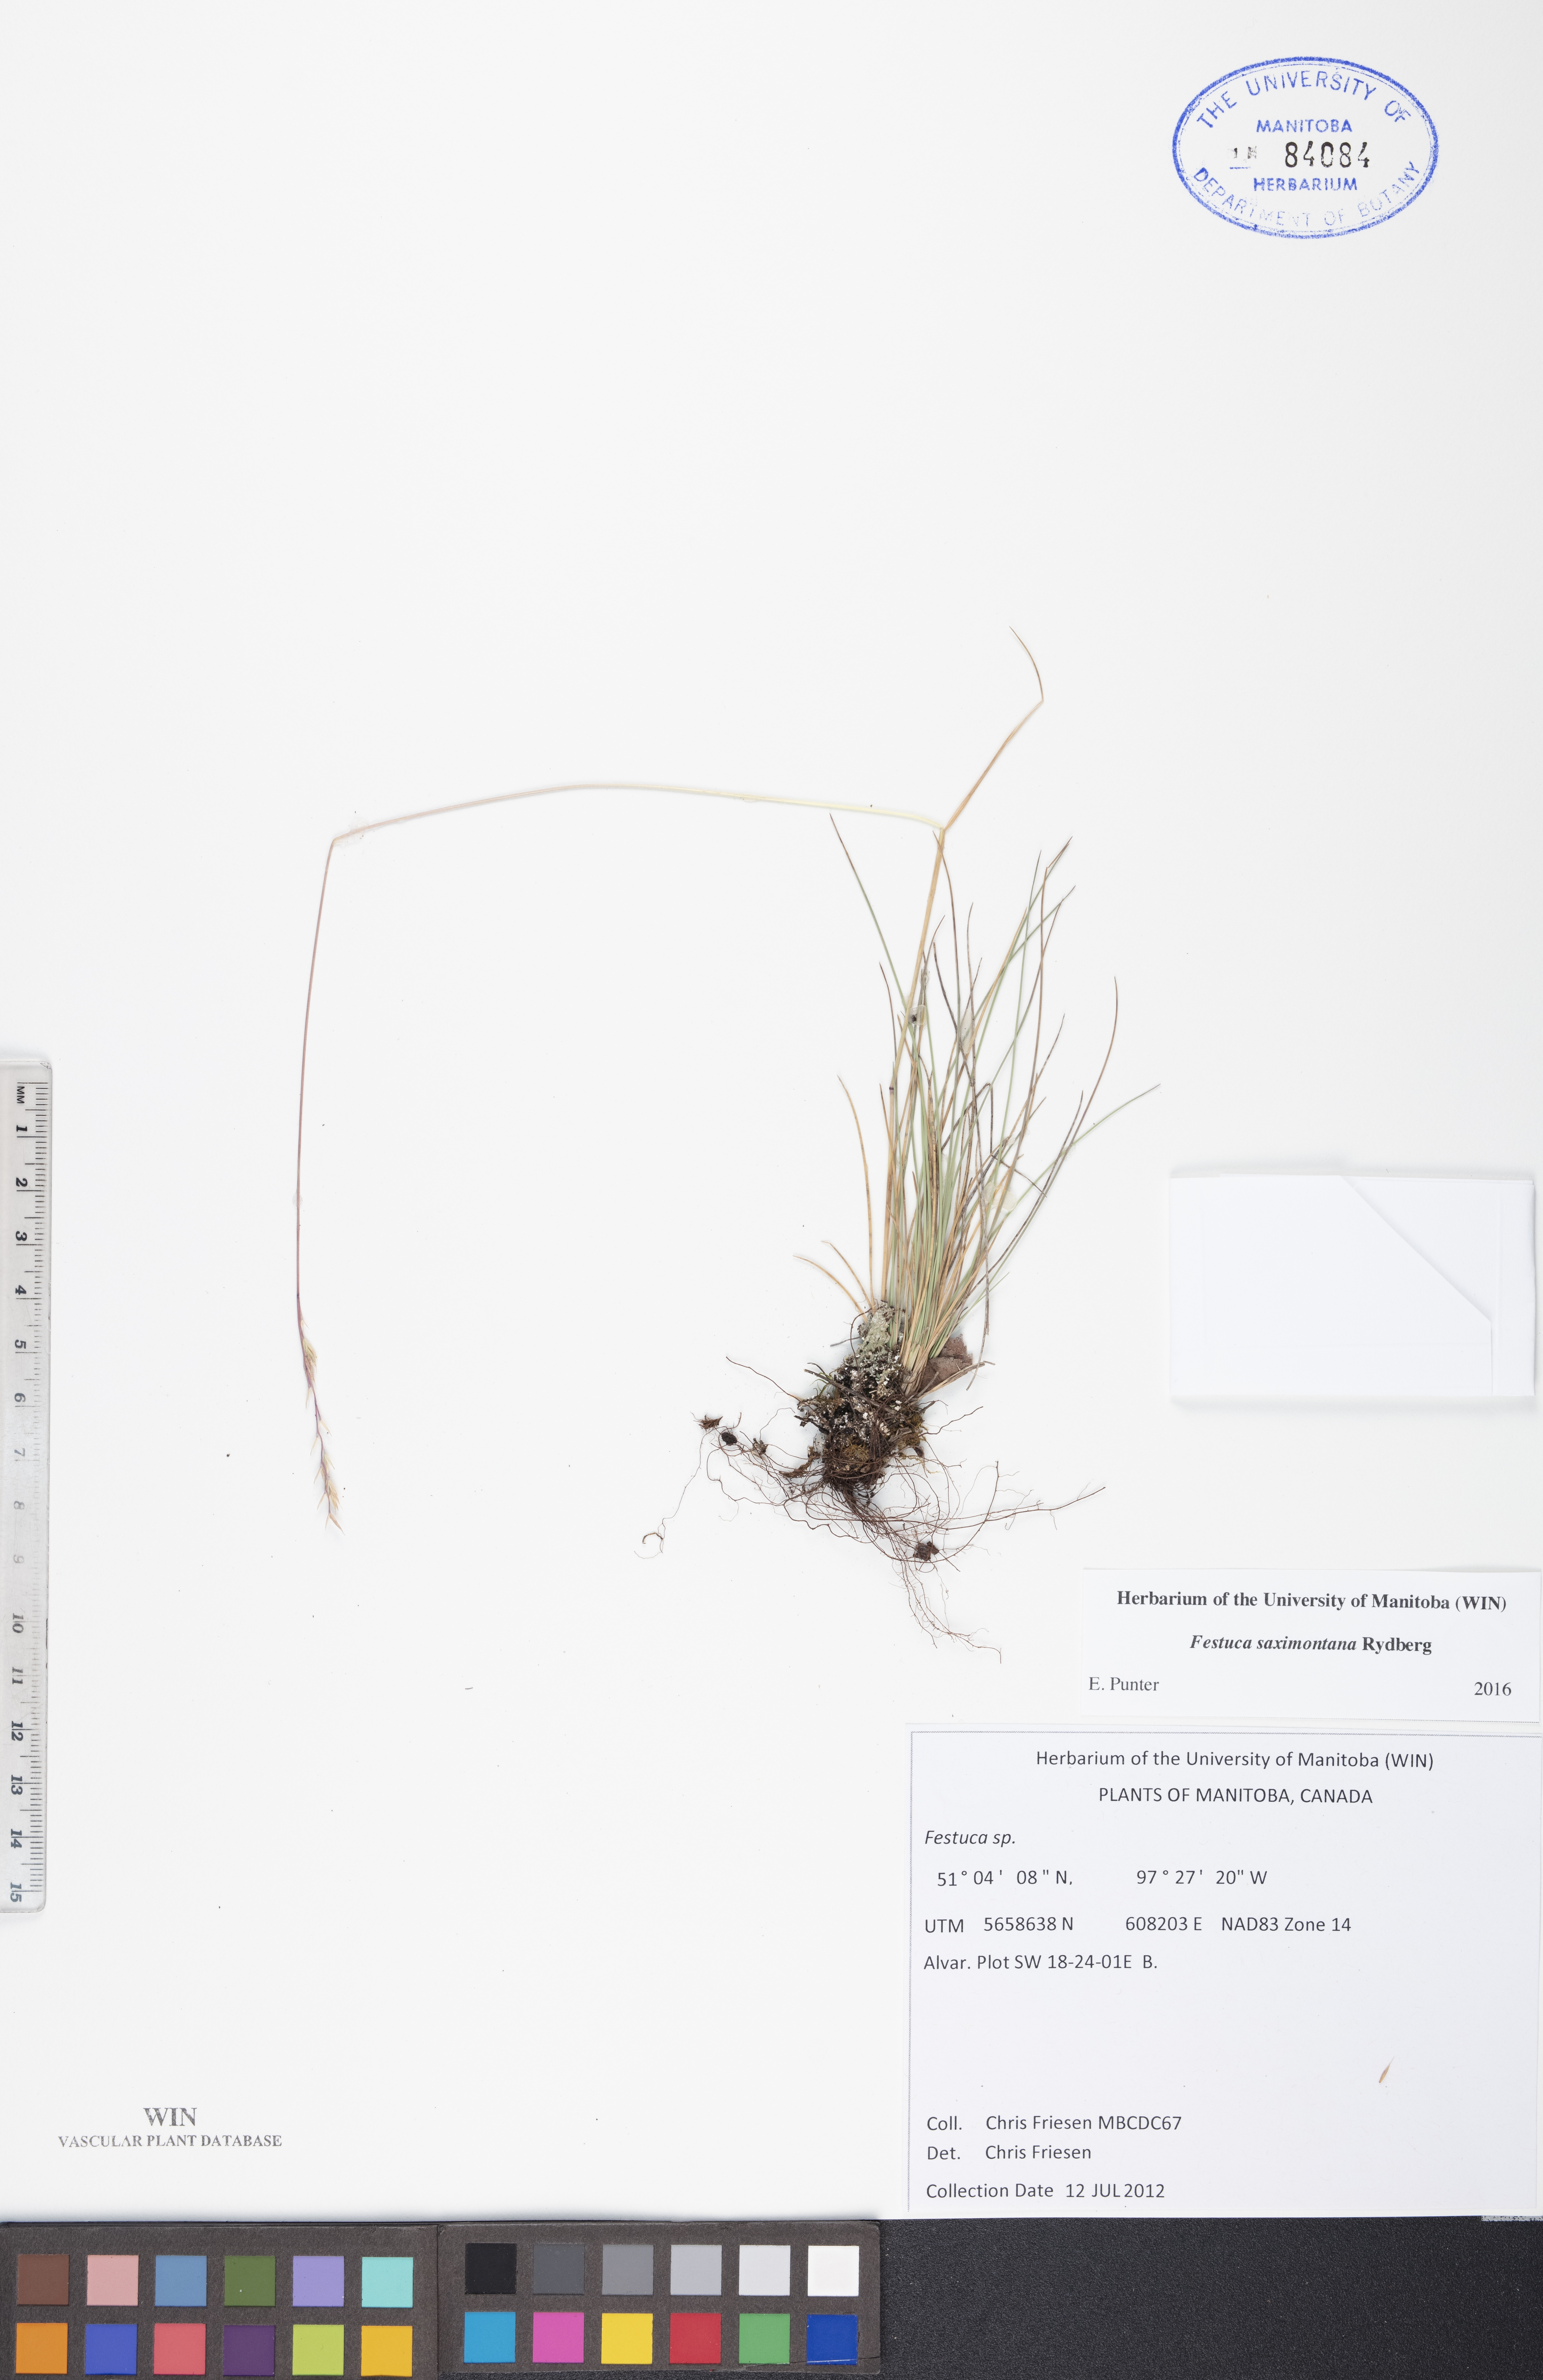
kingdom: Plantae
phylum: Tracheophyta
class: Liliopsida
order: Poales
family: Poaceae
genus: Festuca
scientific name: Festuca saximontana
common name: Mountain fescue
